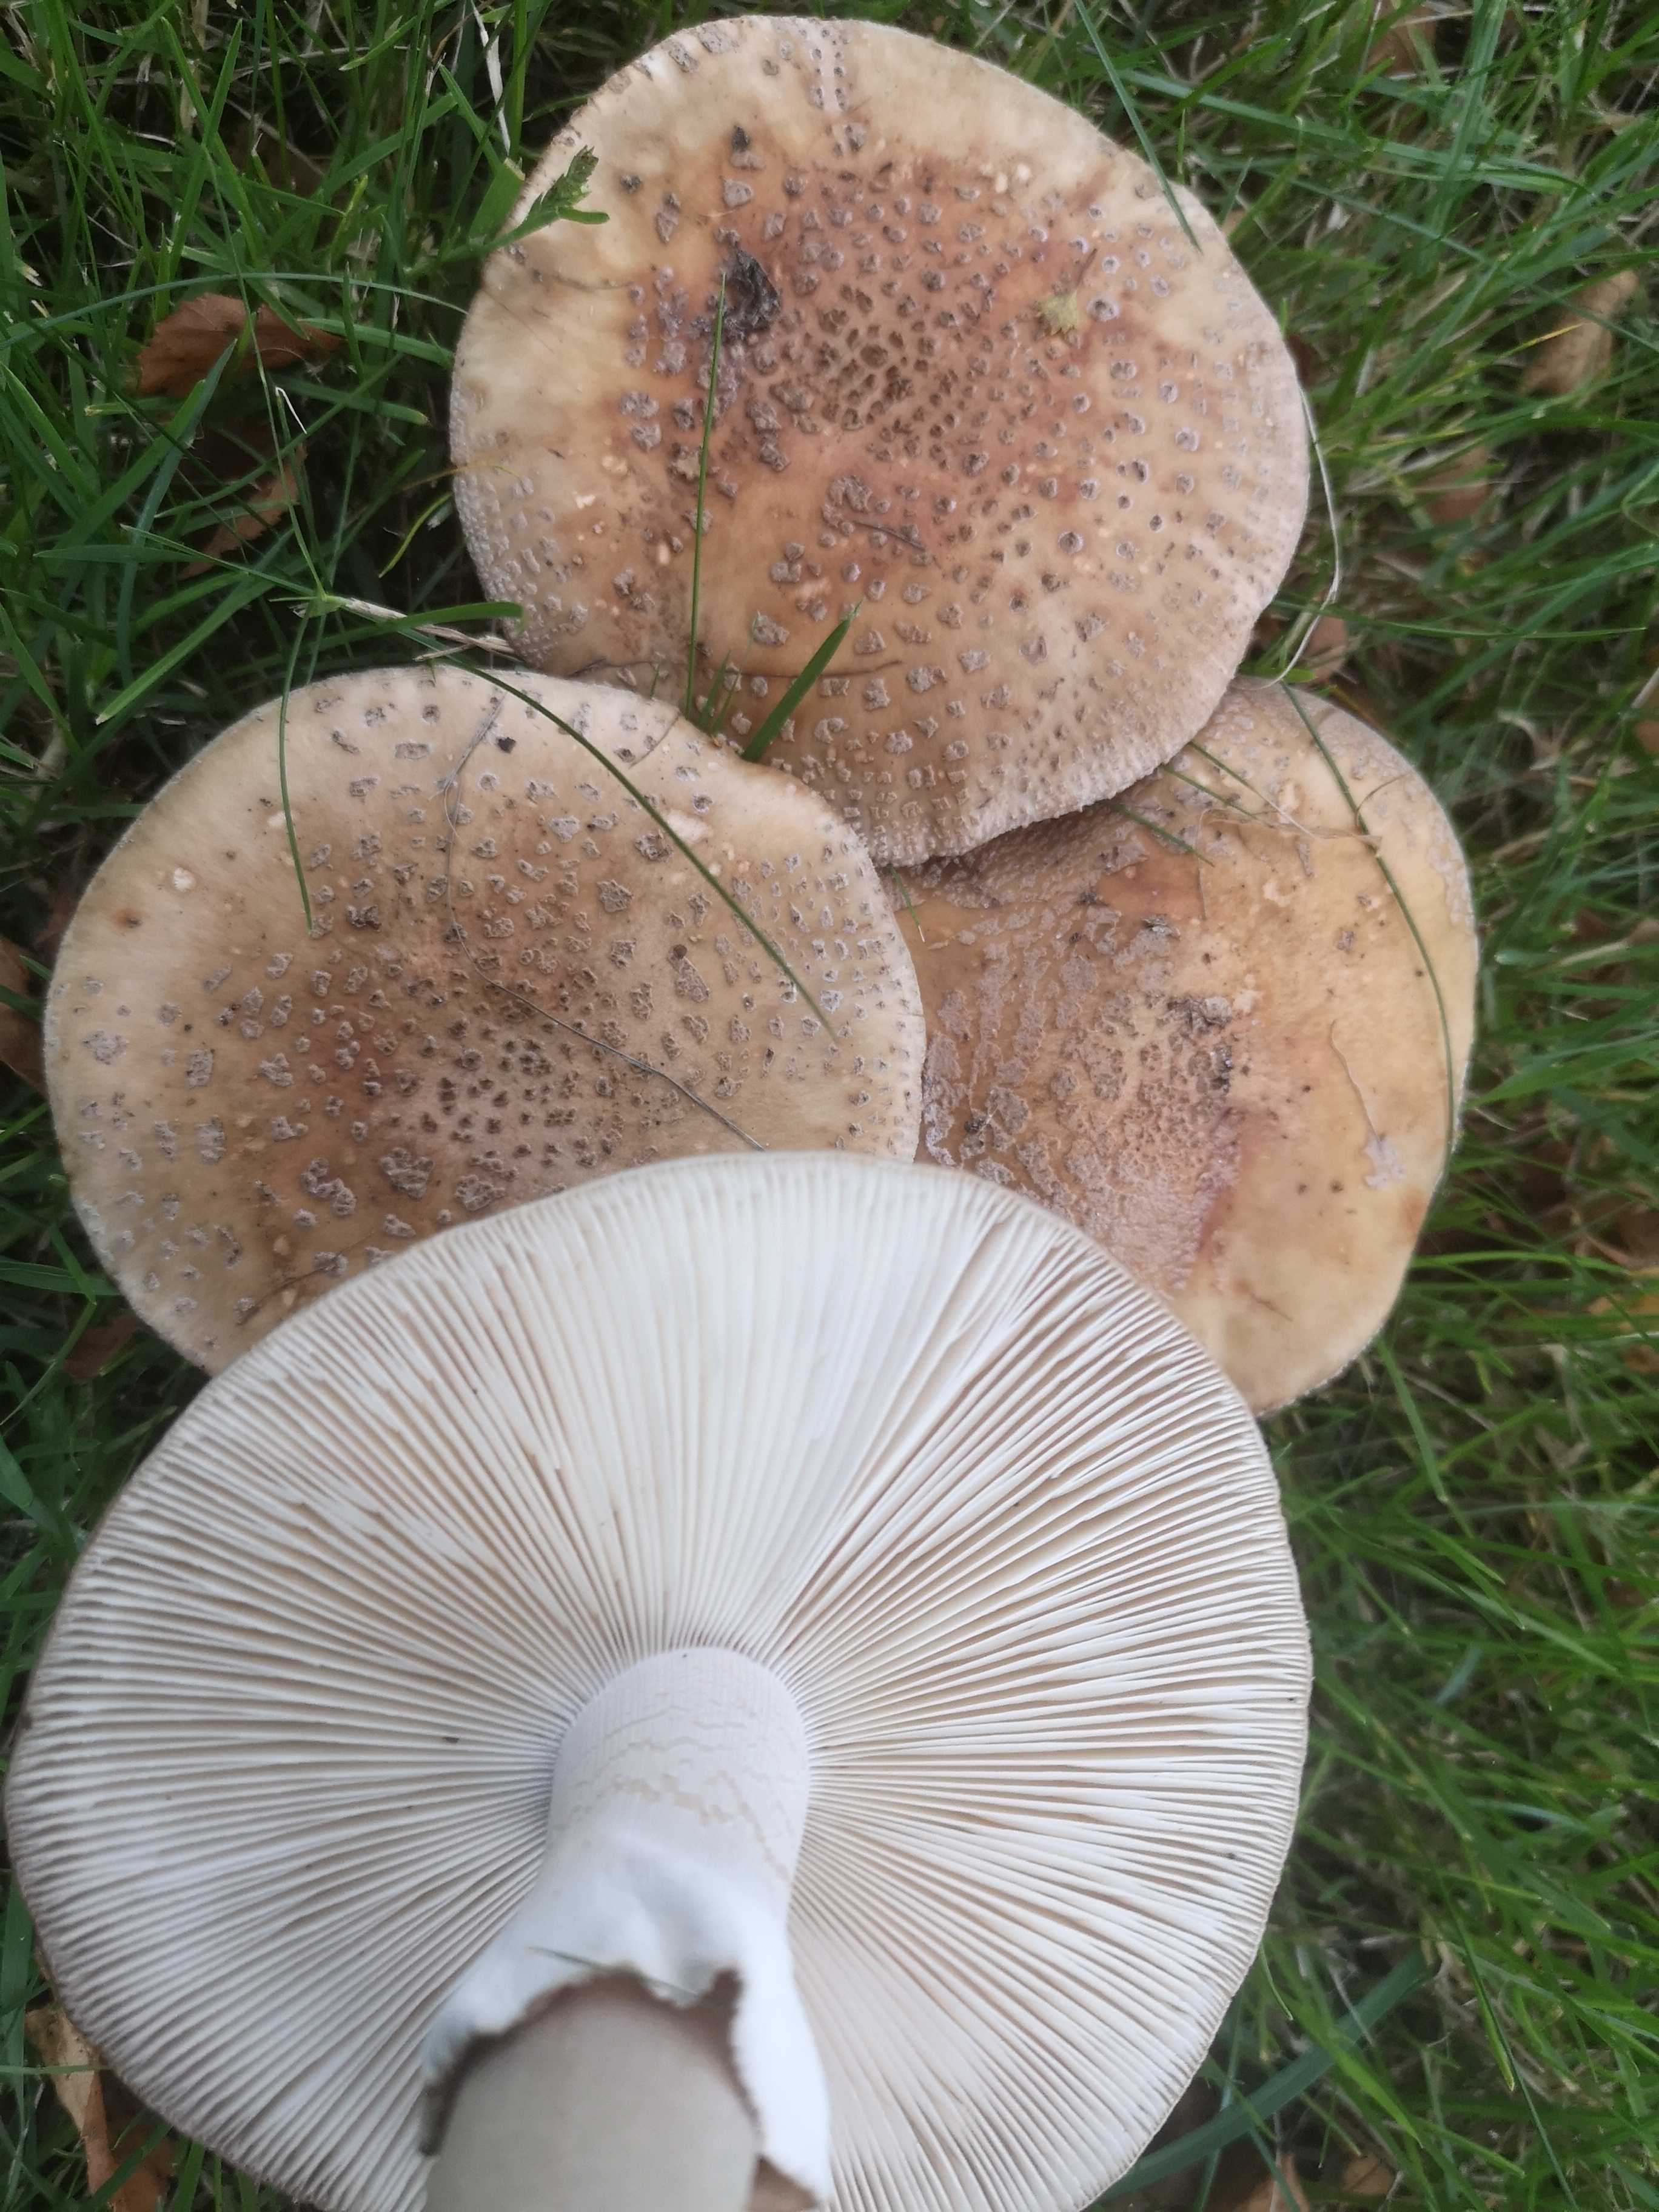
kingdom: Fungi
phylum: Basidiomycota
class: Agaricomycetes
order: Agaricales
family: Amanitaceae
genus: Amanita
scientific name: Amanita rubescens
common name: rødmende fluesvamp
